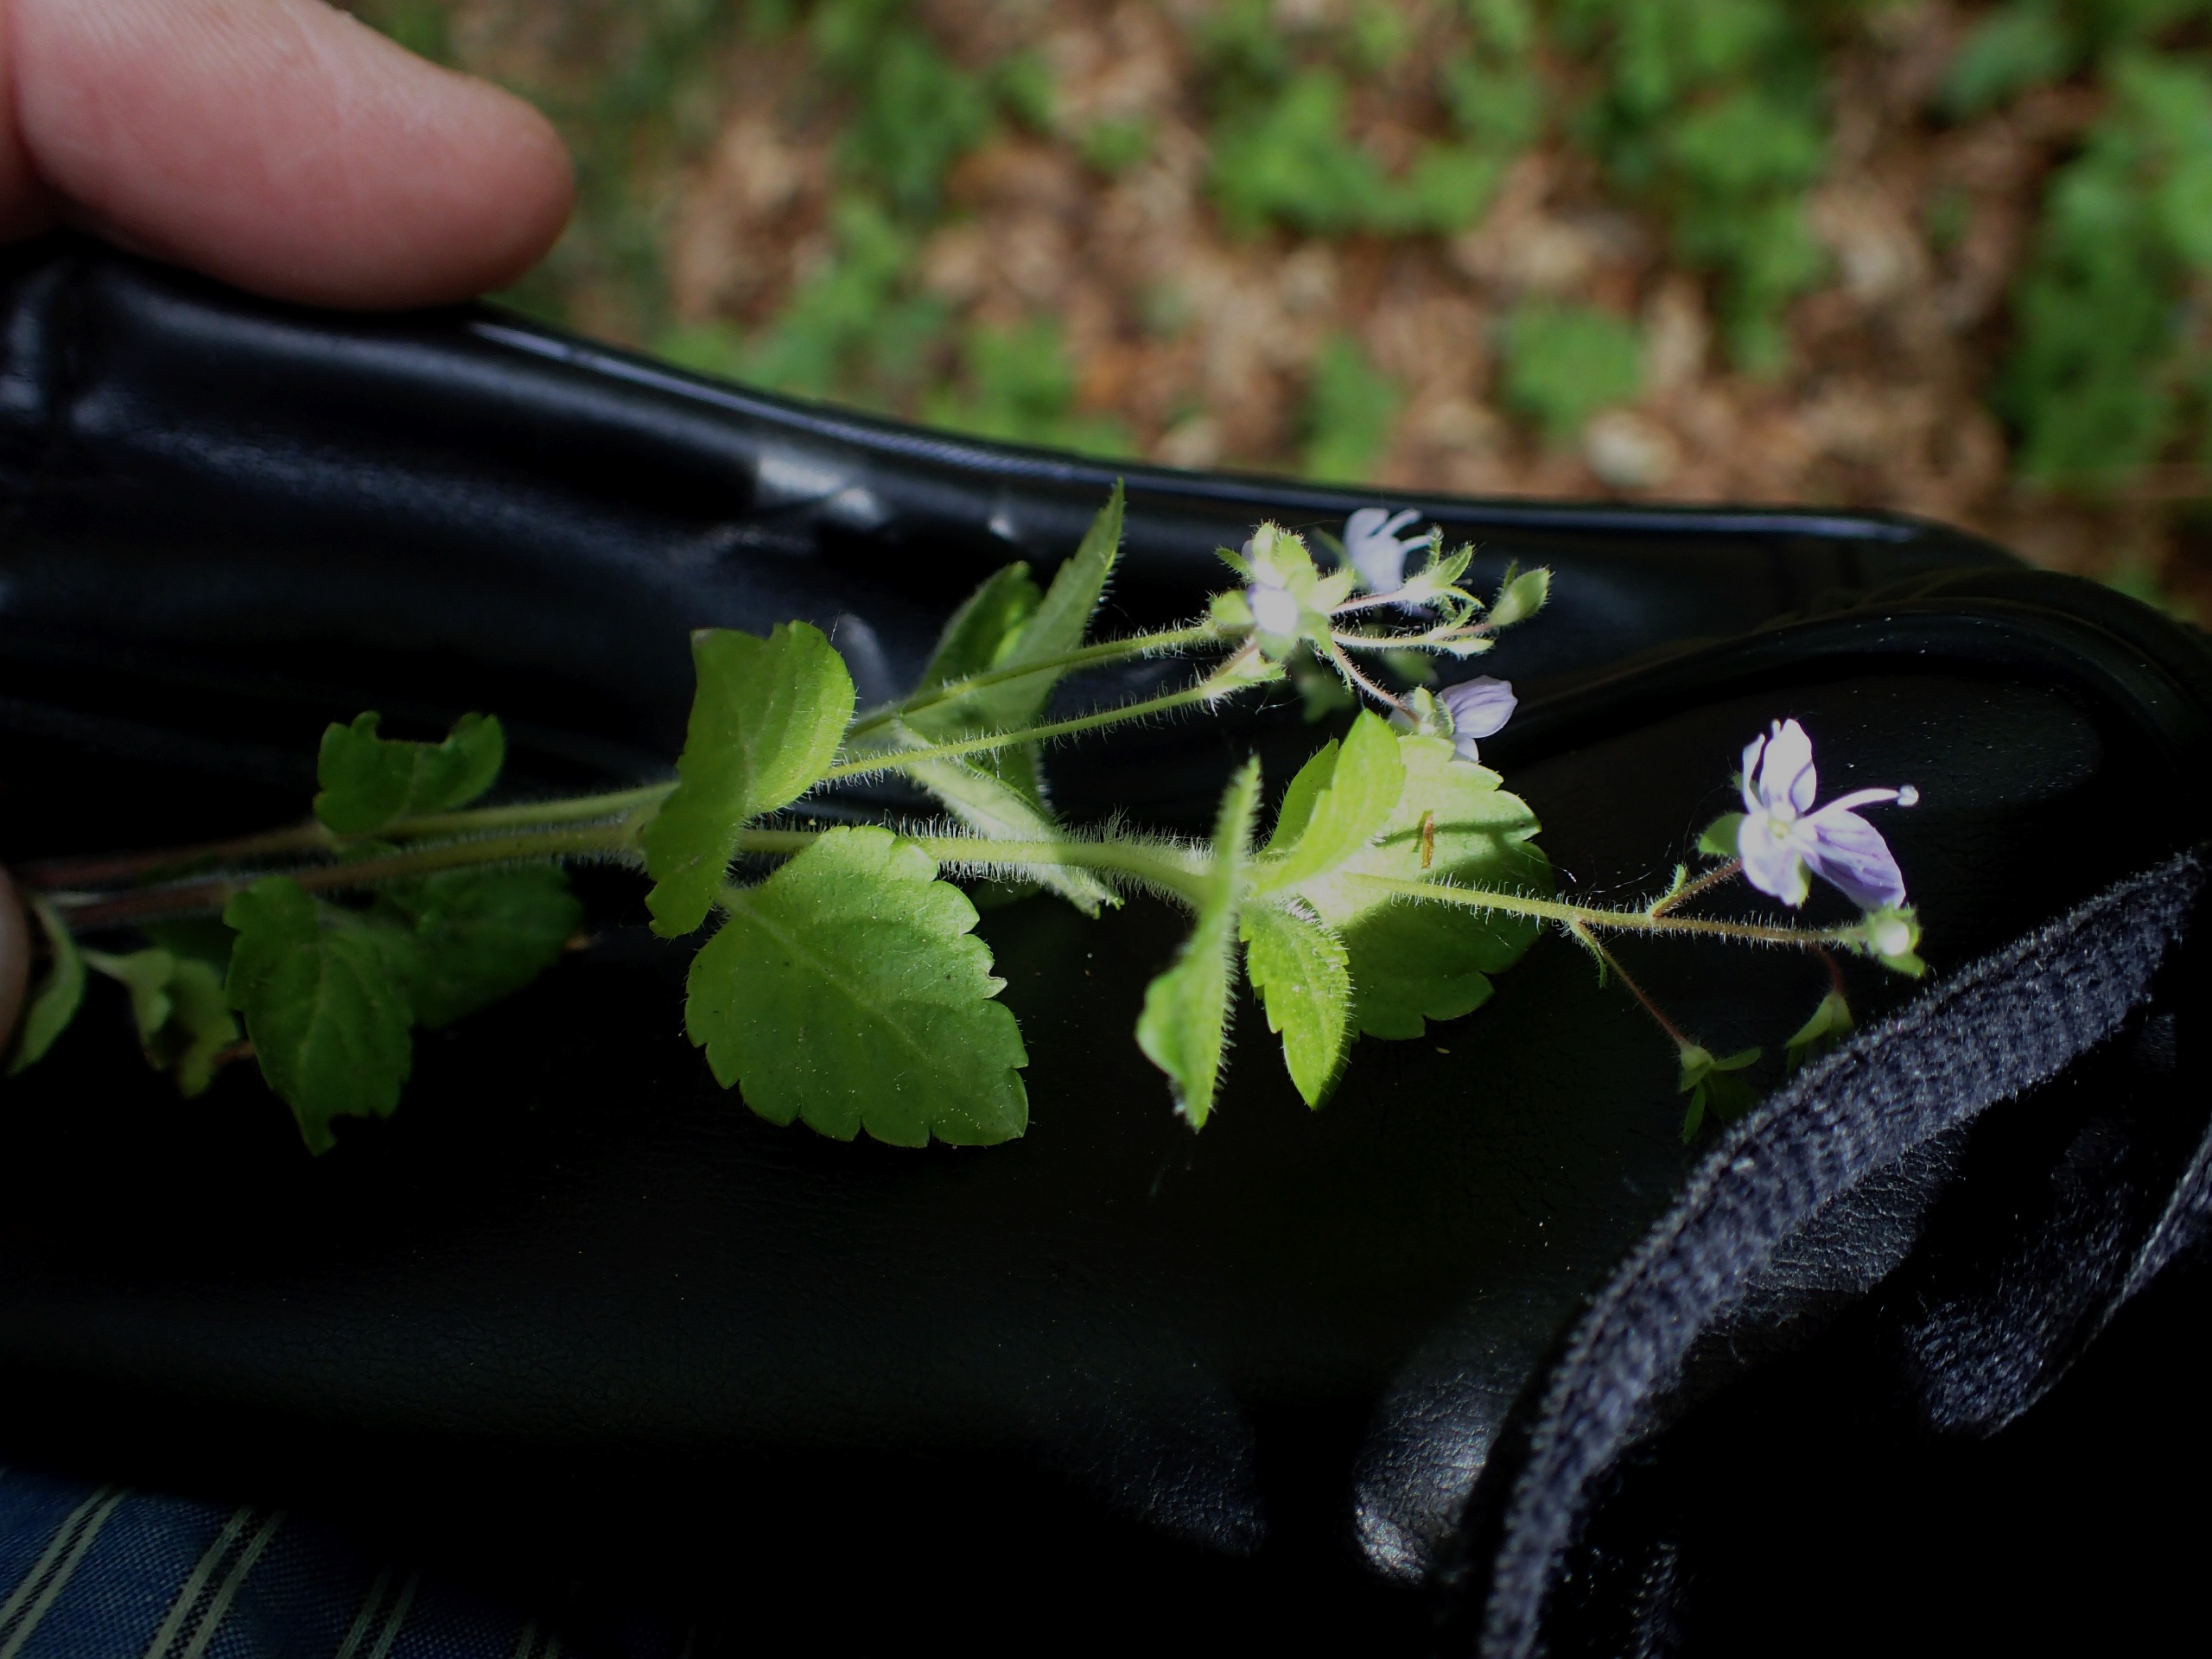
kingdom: Plantae
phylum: Tracheophyta
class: Magnoliopsida
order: Lamiales
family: Plantaginaceae
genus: Veronica
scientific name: Veronica montana
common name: Bjerg-ærenpris
